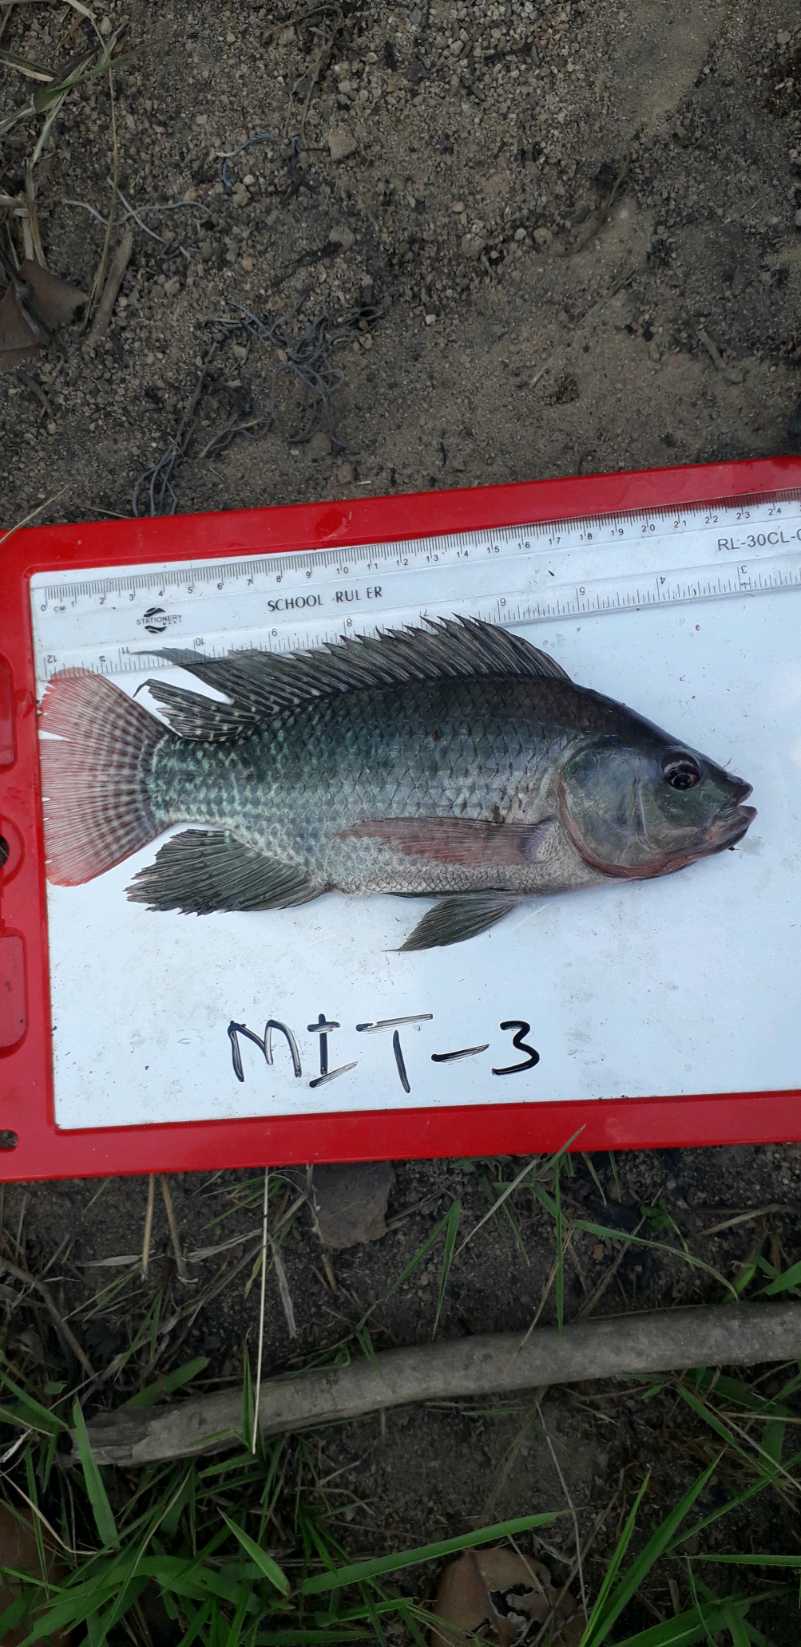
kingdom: Animalia
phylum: Chordata
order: Perciformes
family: Cichlidae
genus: Oreochromis
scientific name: Oreochromis niloticus
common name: Nile tilapia
